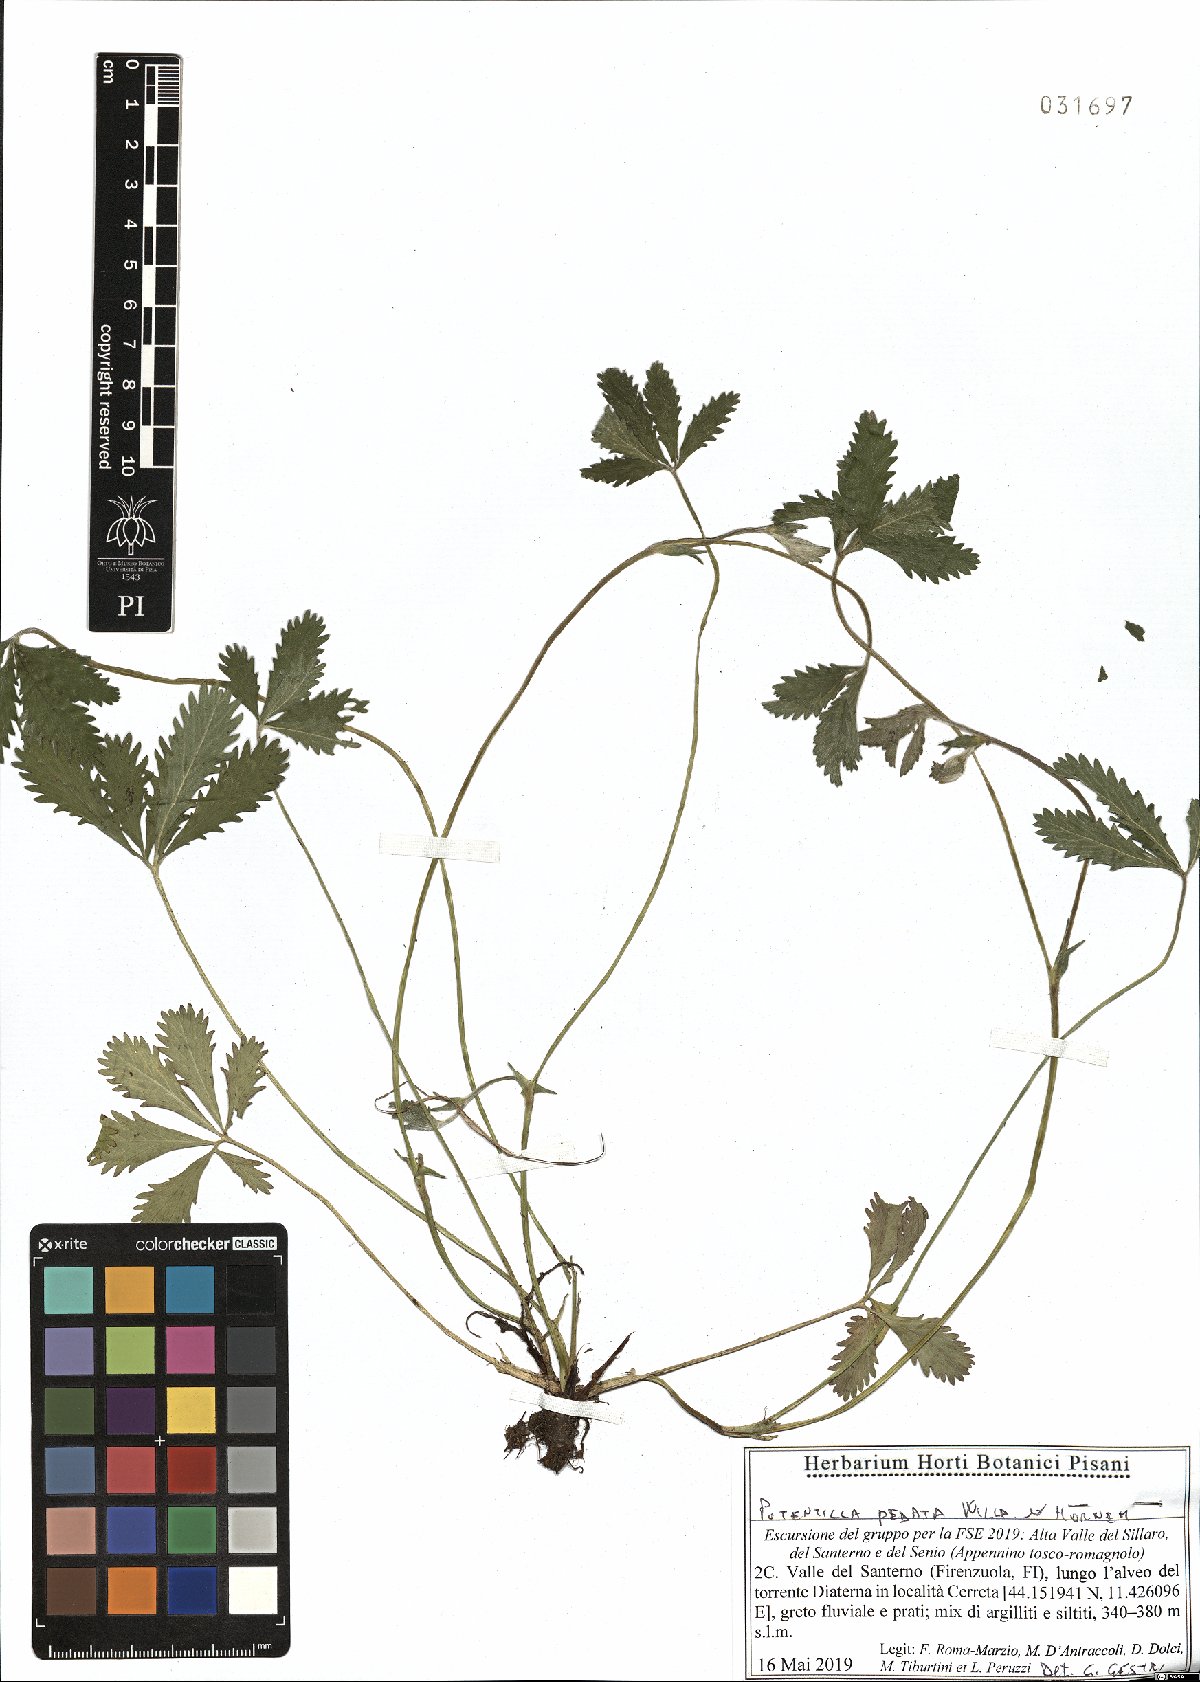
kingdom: Plantae
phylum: Tracheophyta
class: Magnoliopsida
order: Rosales
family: Rosaceae
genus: Potentilla
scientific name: Potentilla pedata
